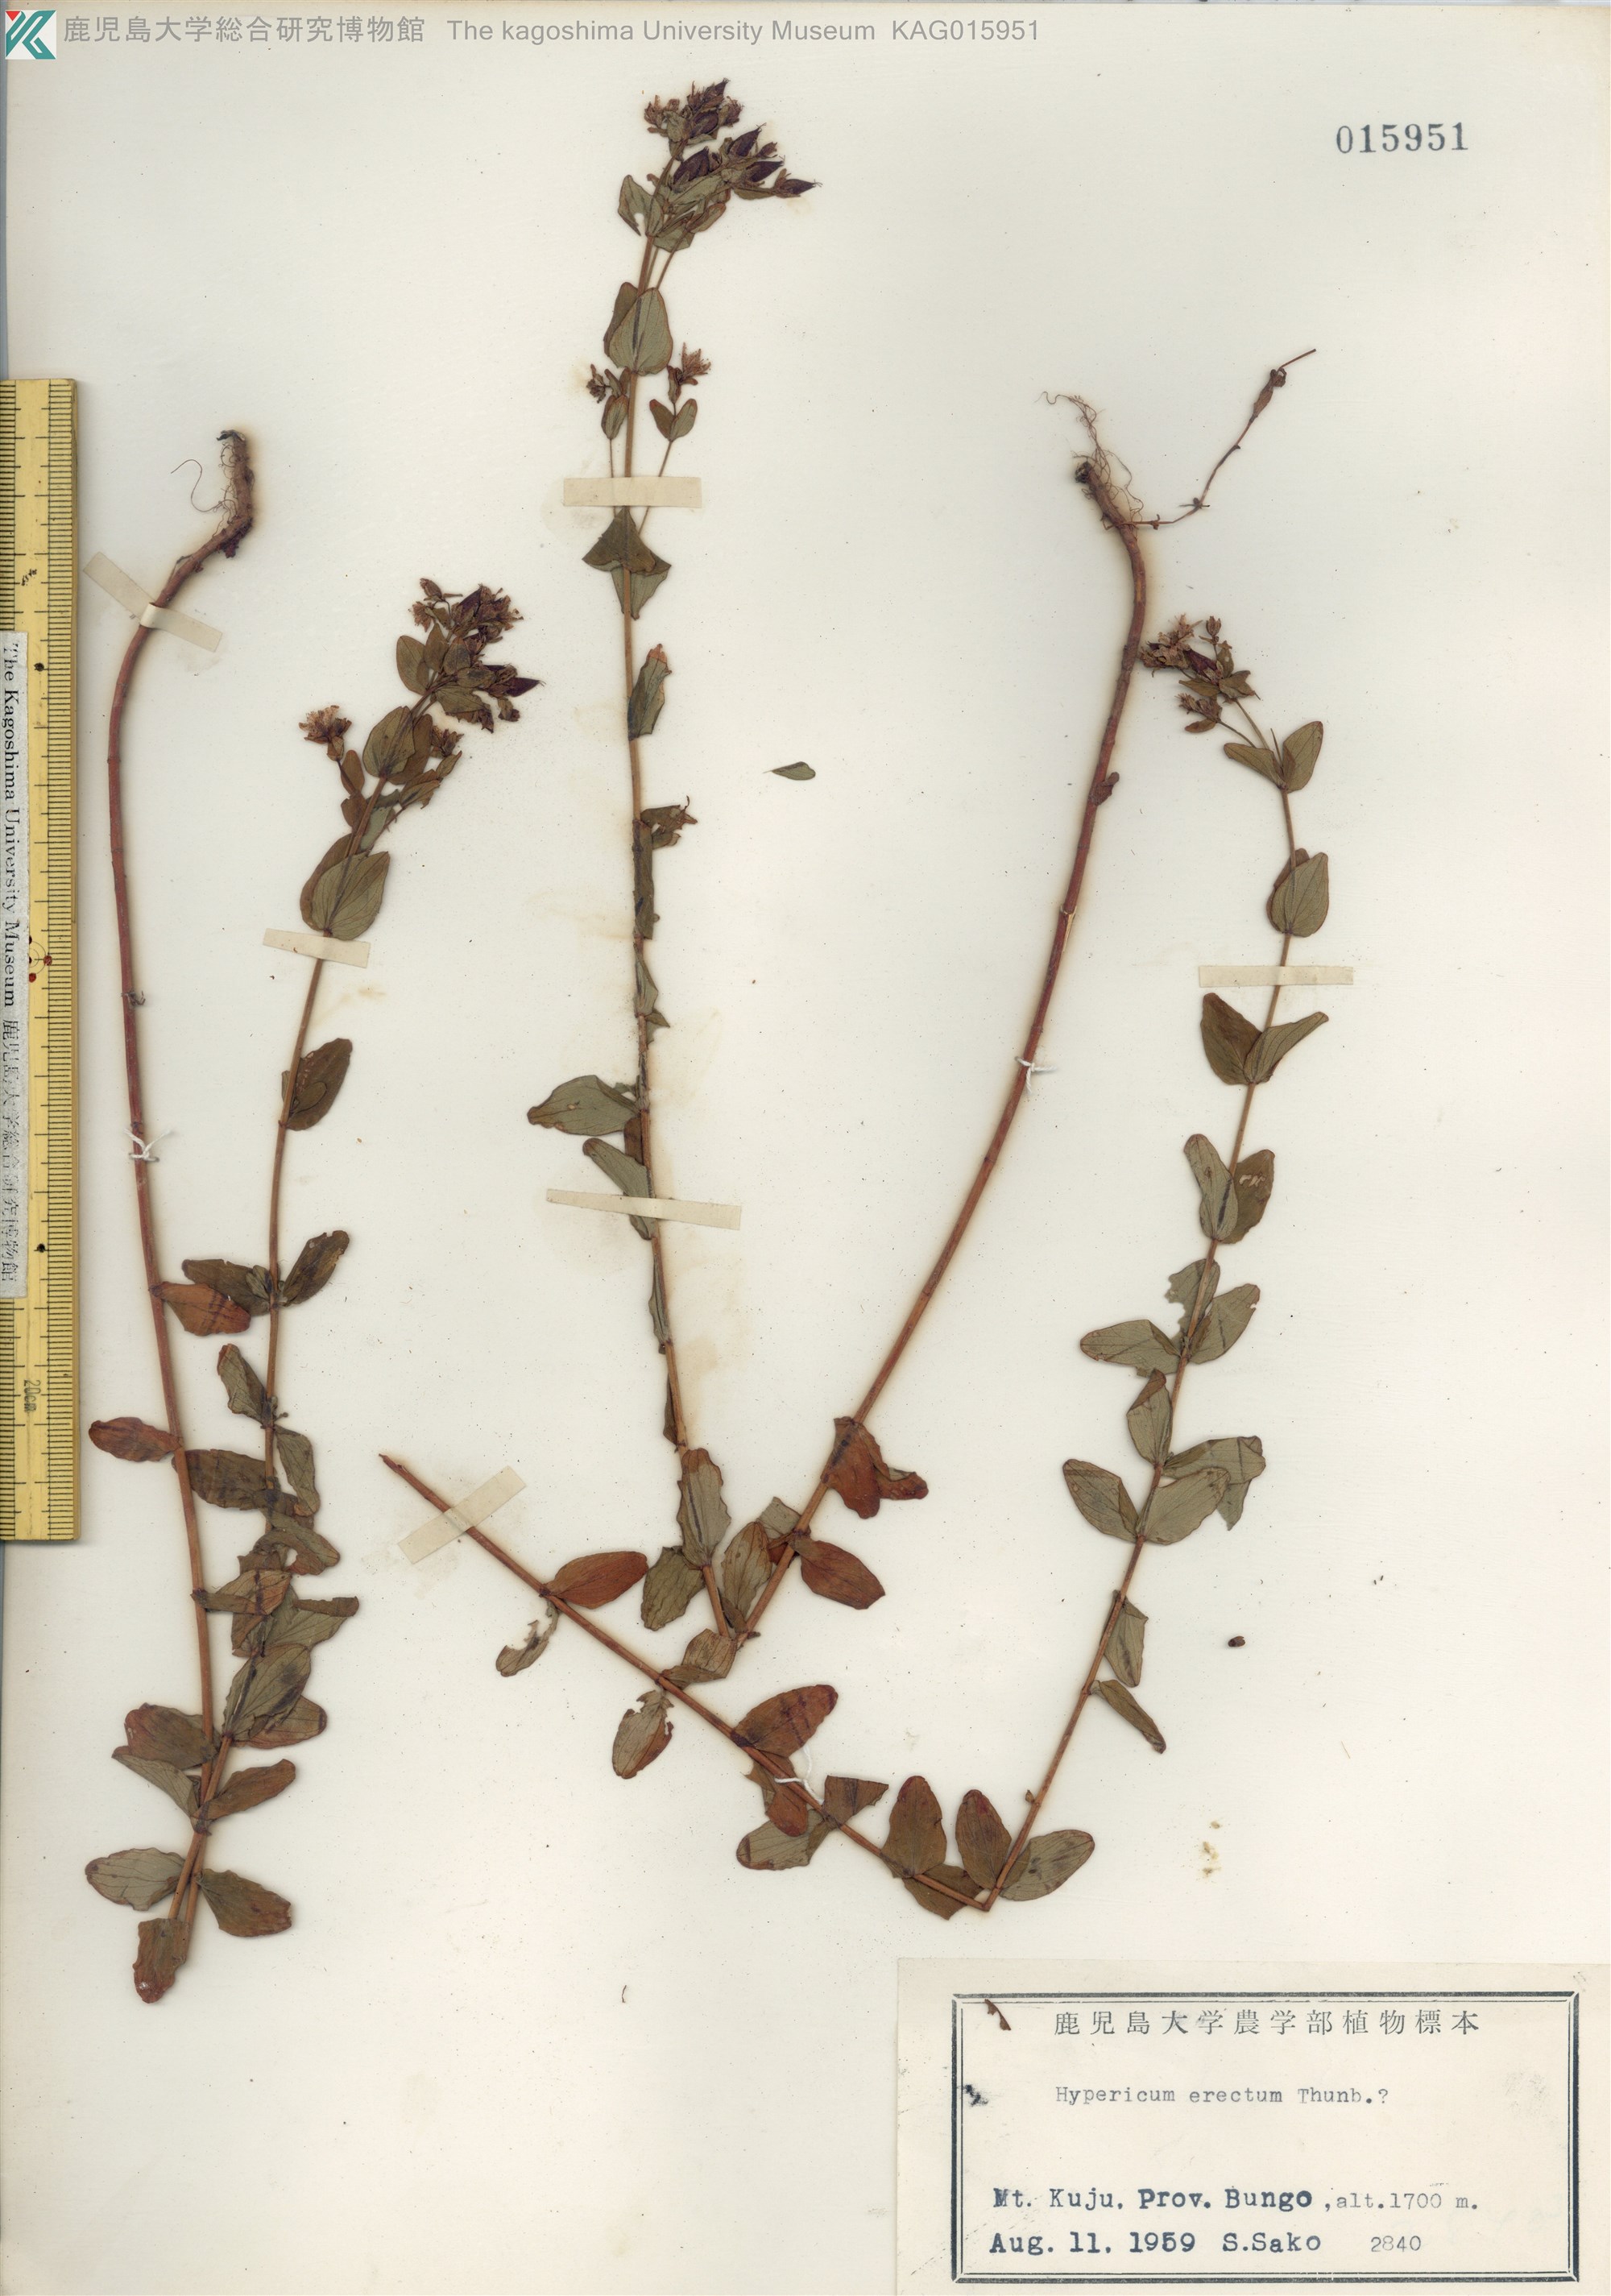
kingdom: Plantae
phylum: Tracheophyta
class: Magnoliopsida
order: Malpighiales
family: Hypericaceae
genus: Hypericum
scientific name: Hypericum erectum
